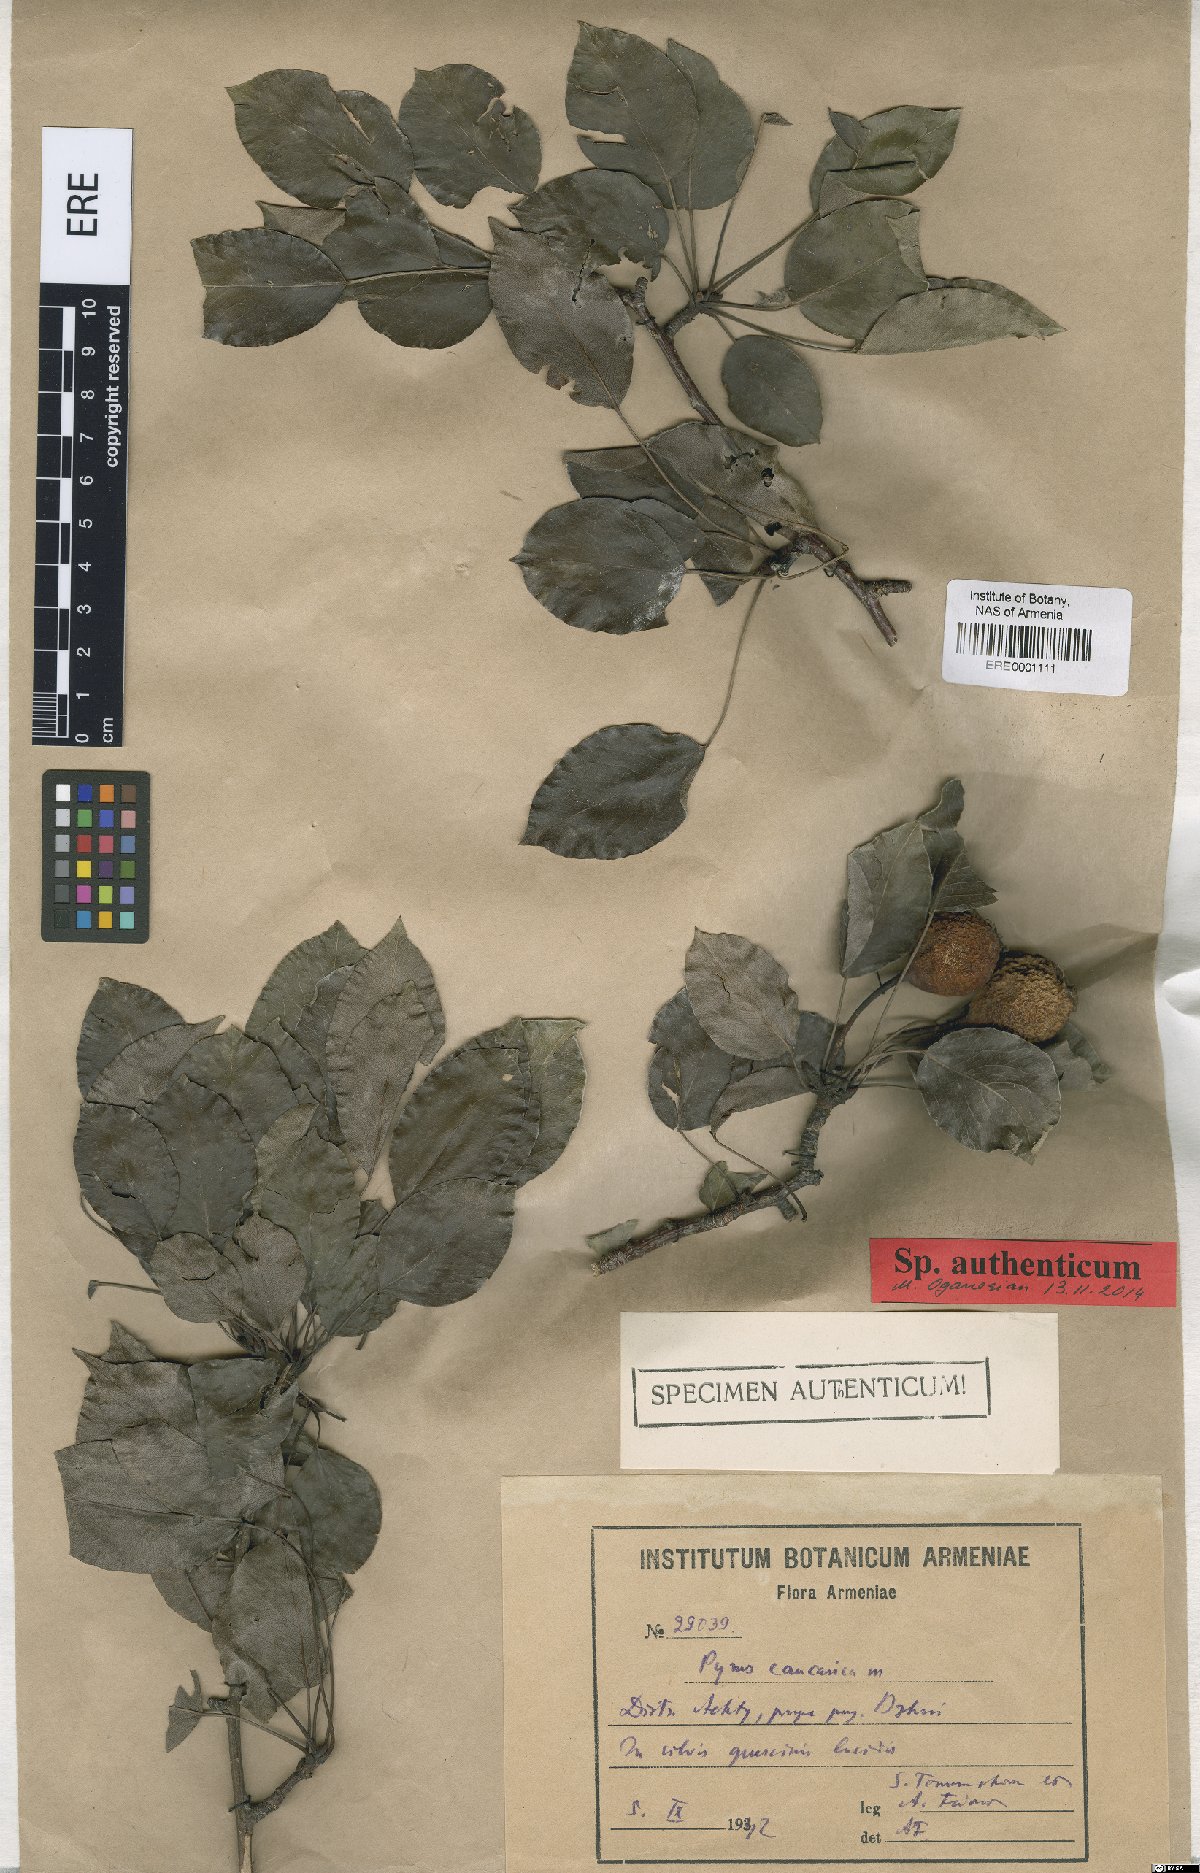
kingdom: Plantae
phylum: Tracheophyta
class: Magnoliopsida
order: Rosales
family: Rosaceae
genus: Pyrus
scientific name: Pyrus communis
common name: Pear
